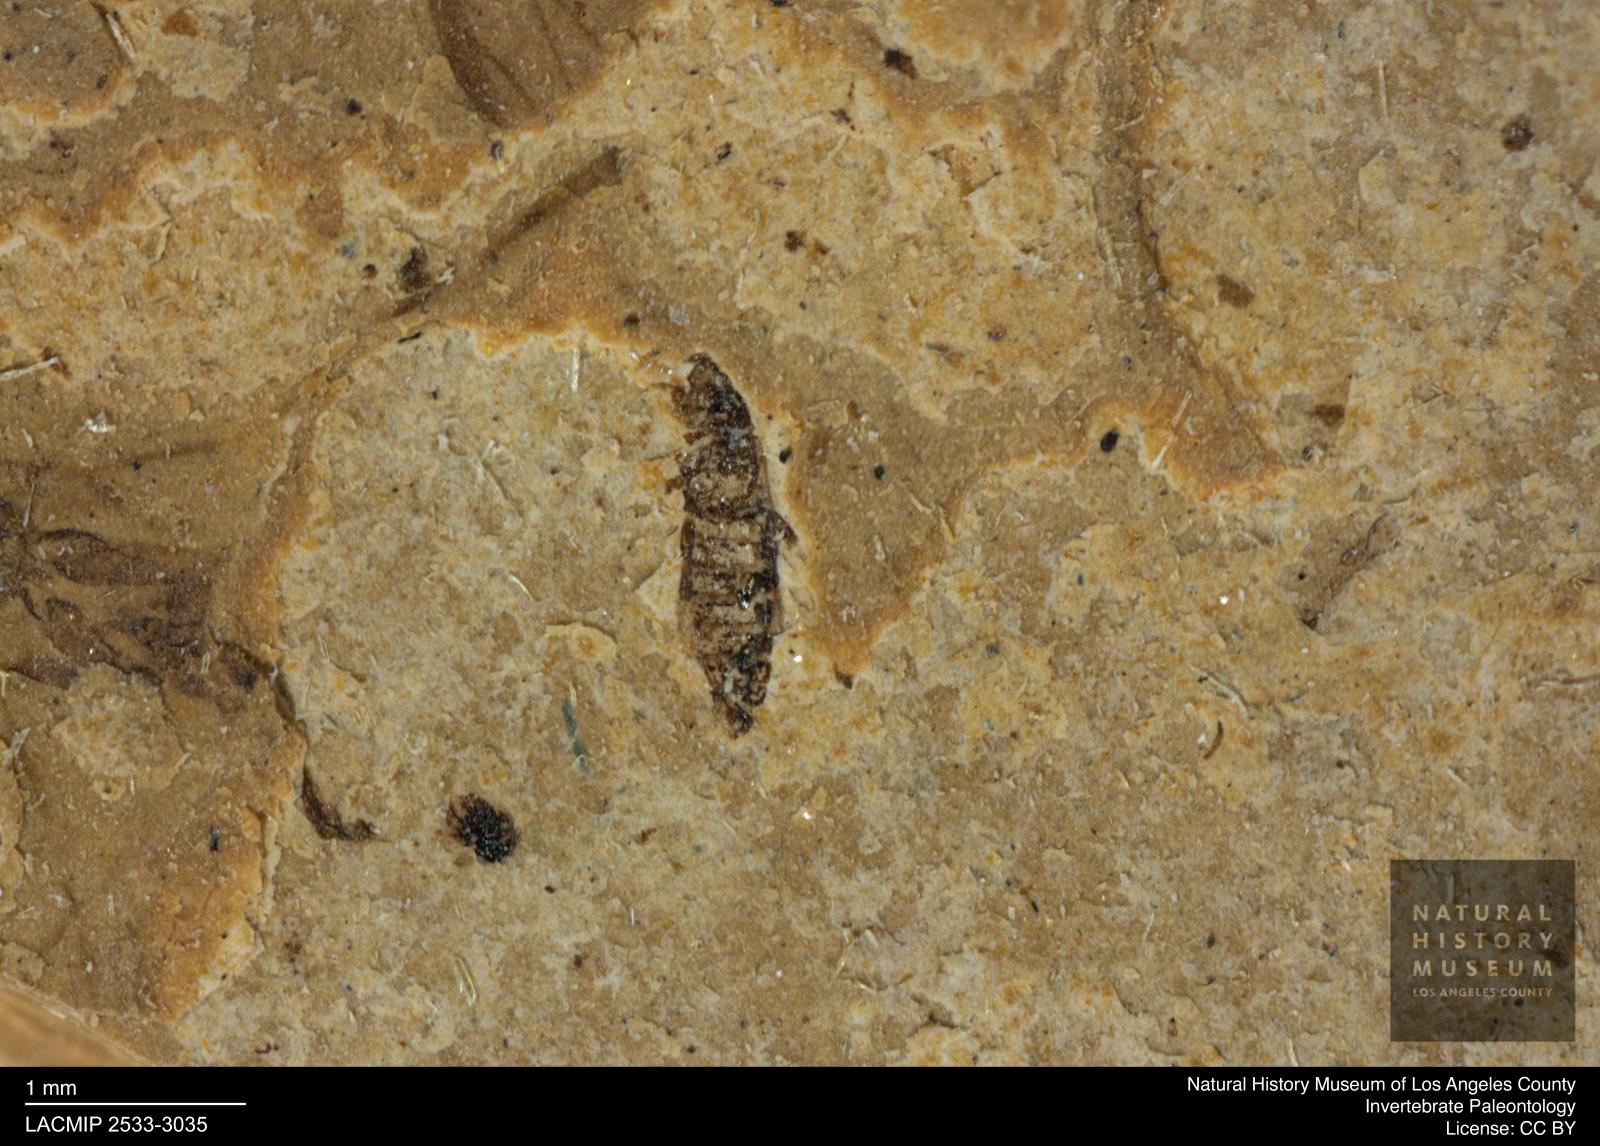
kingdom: Animalia
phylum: Arthropoda
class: Insecta
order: Thysanoptera
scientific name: Thysanoptera
